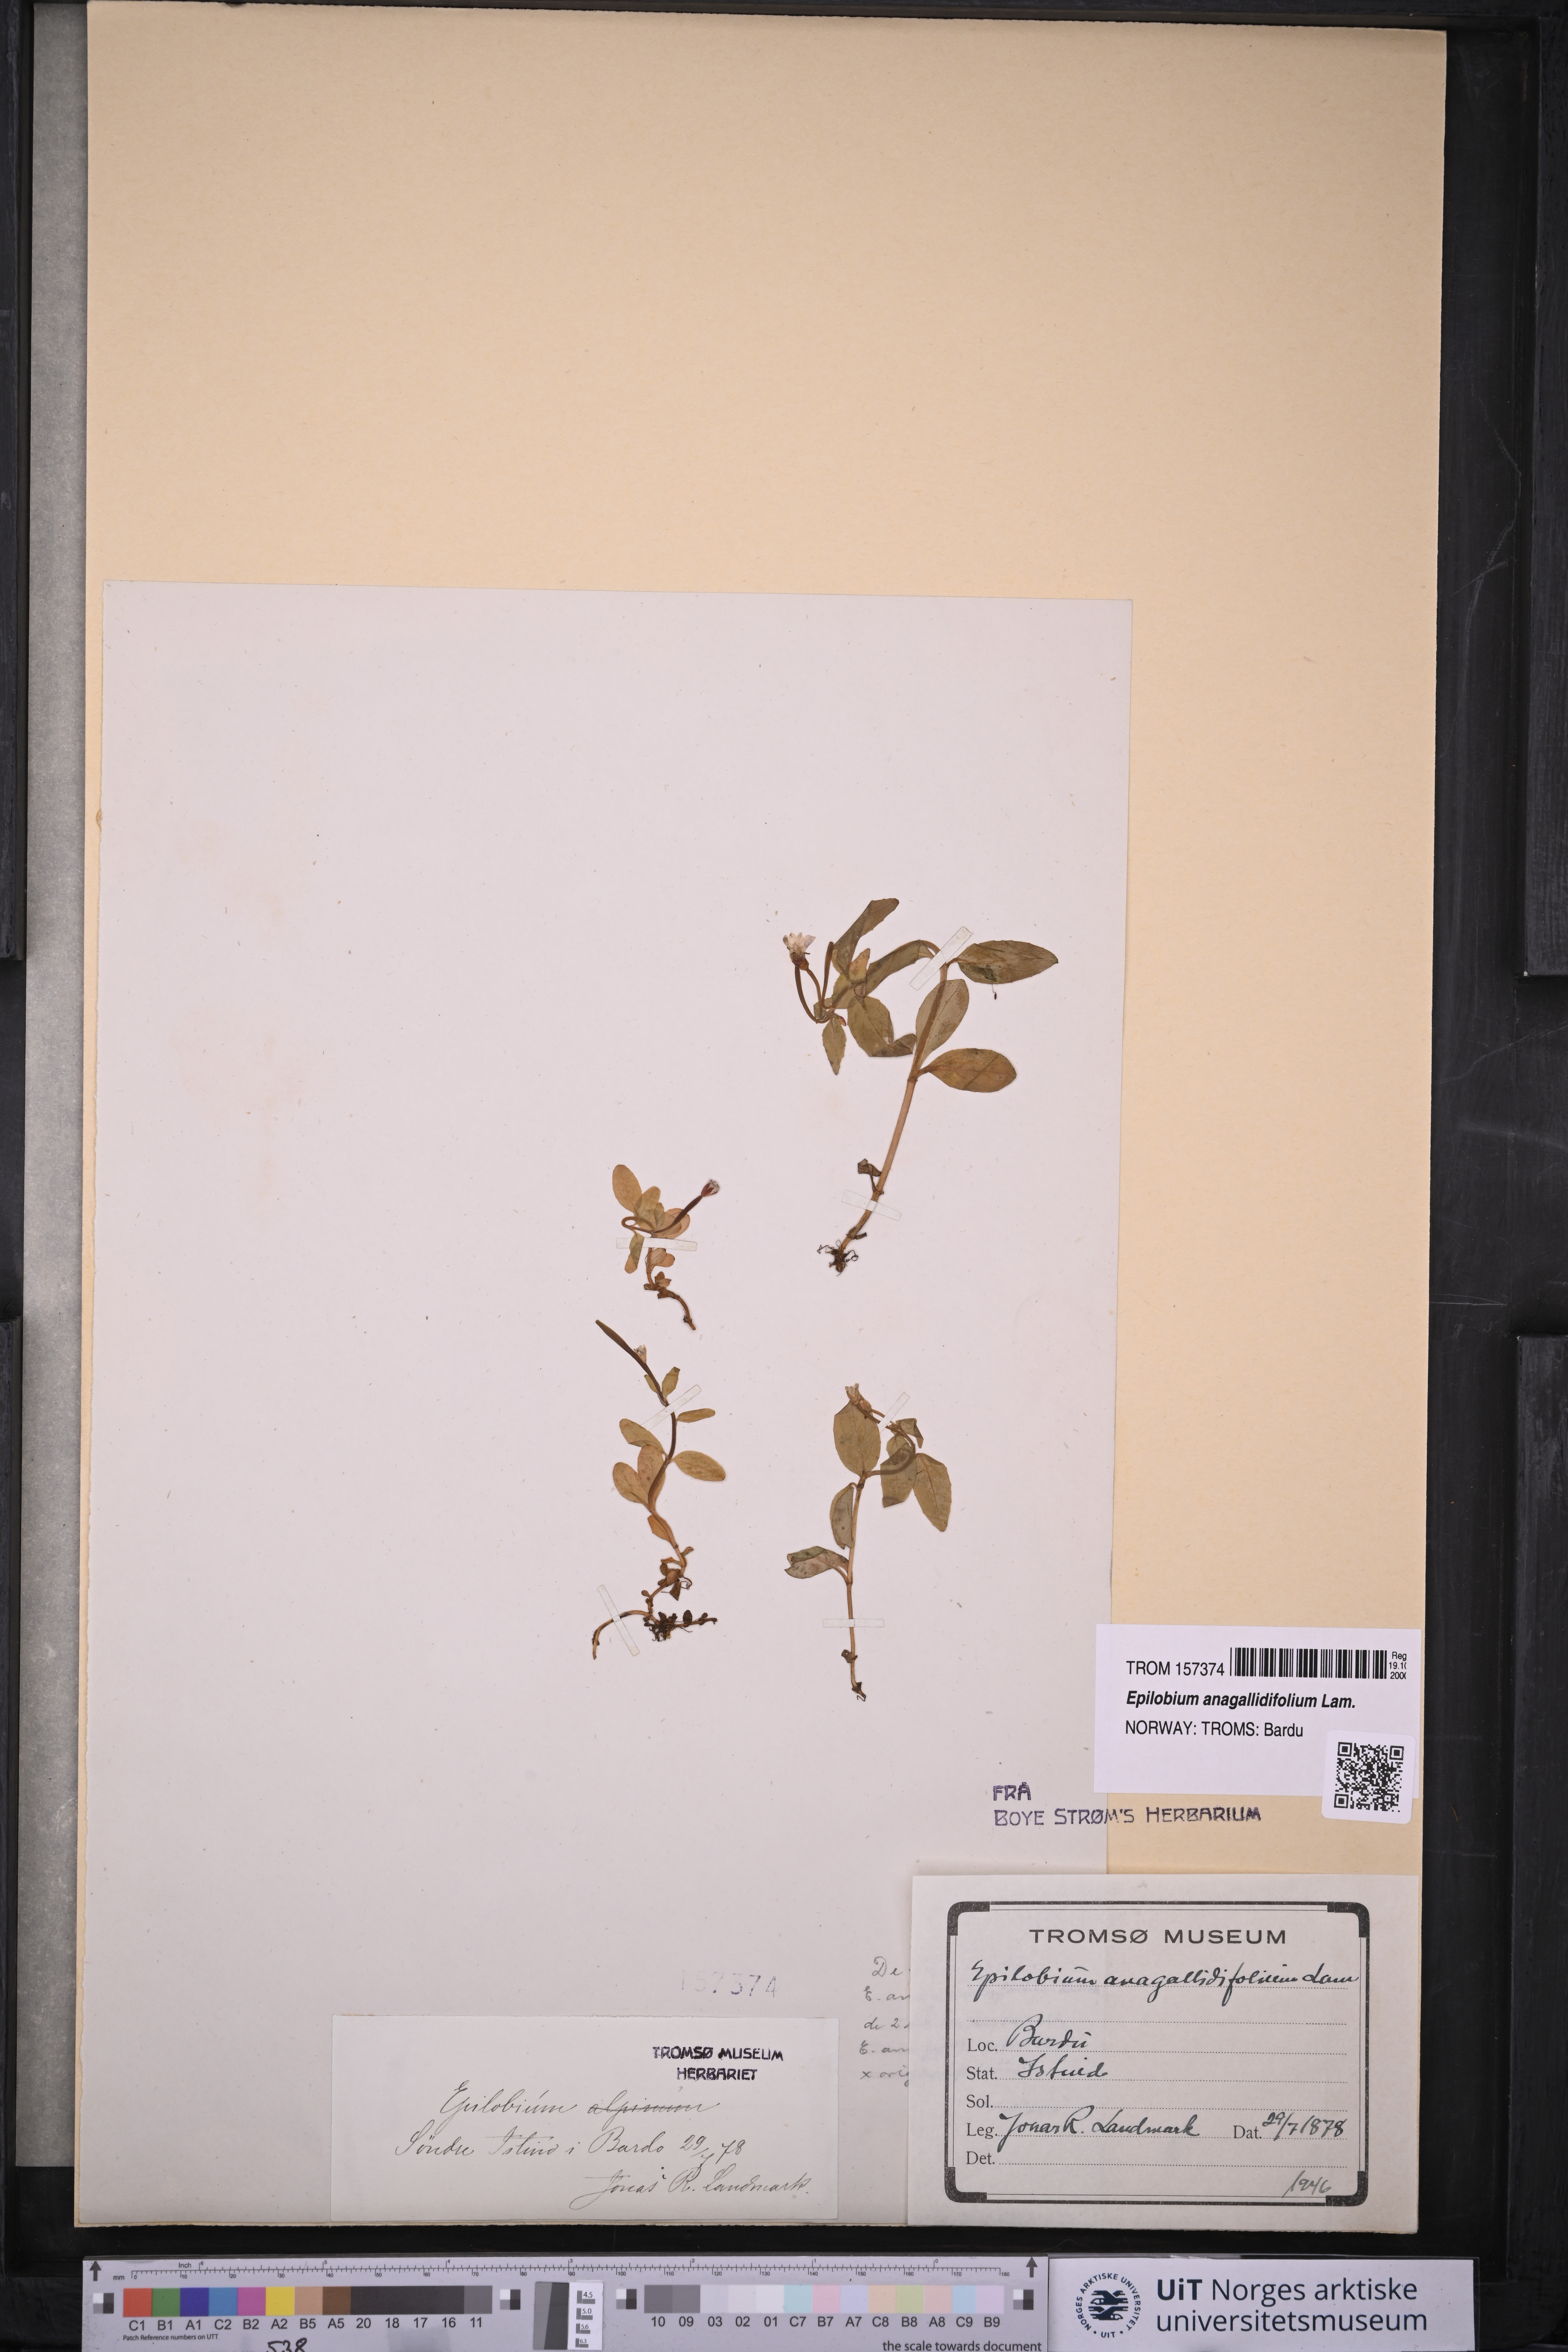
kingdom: Plantae
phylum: Tracheophyta
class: Magnoliopsida
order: Myrtales
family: Onagraceae
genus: Epilobium
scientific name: Epilobium anagallidifolium
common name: Alpine willowherb
